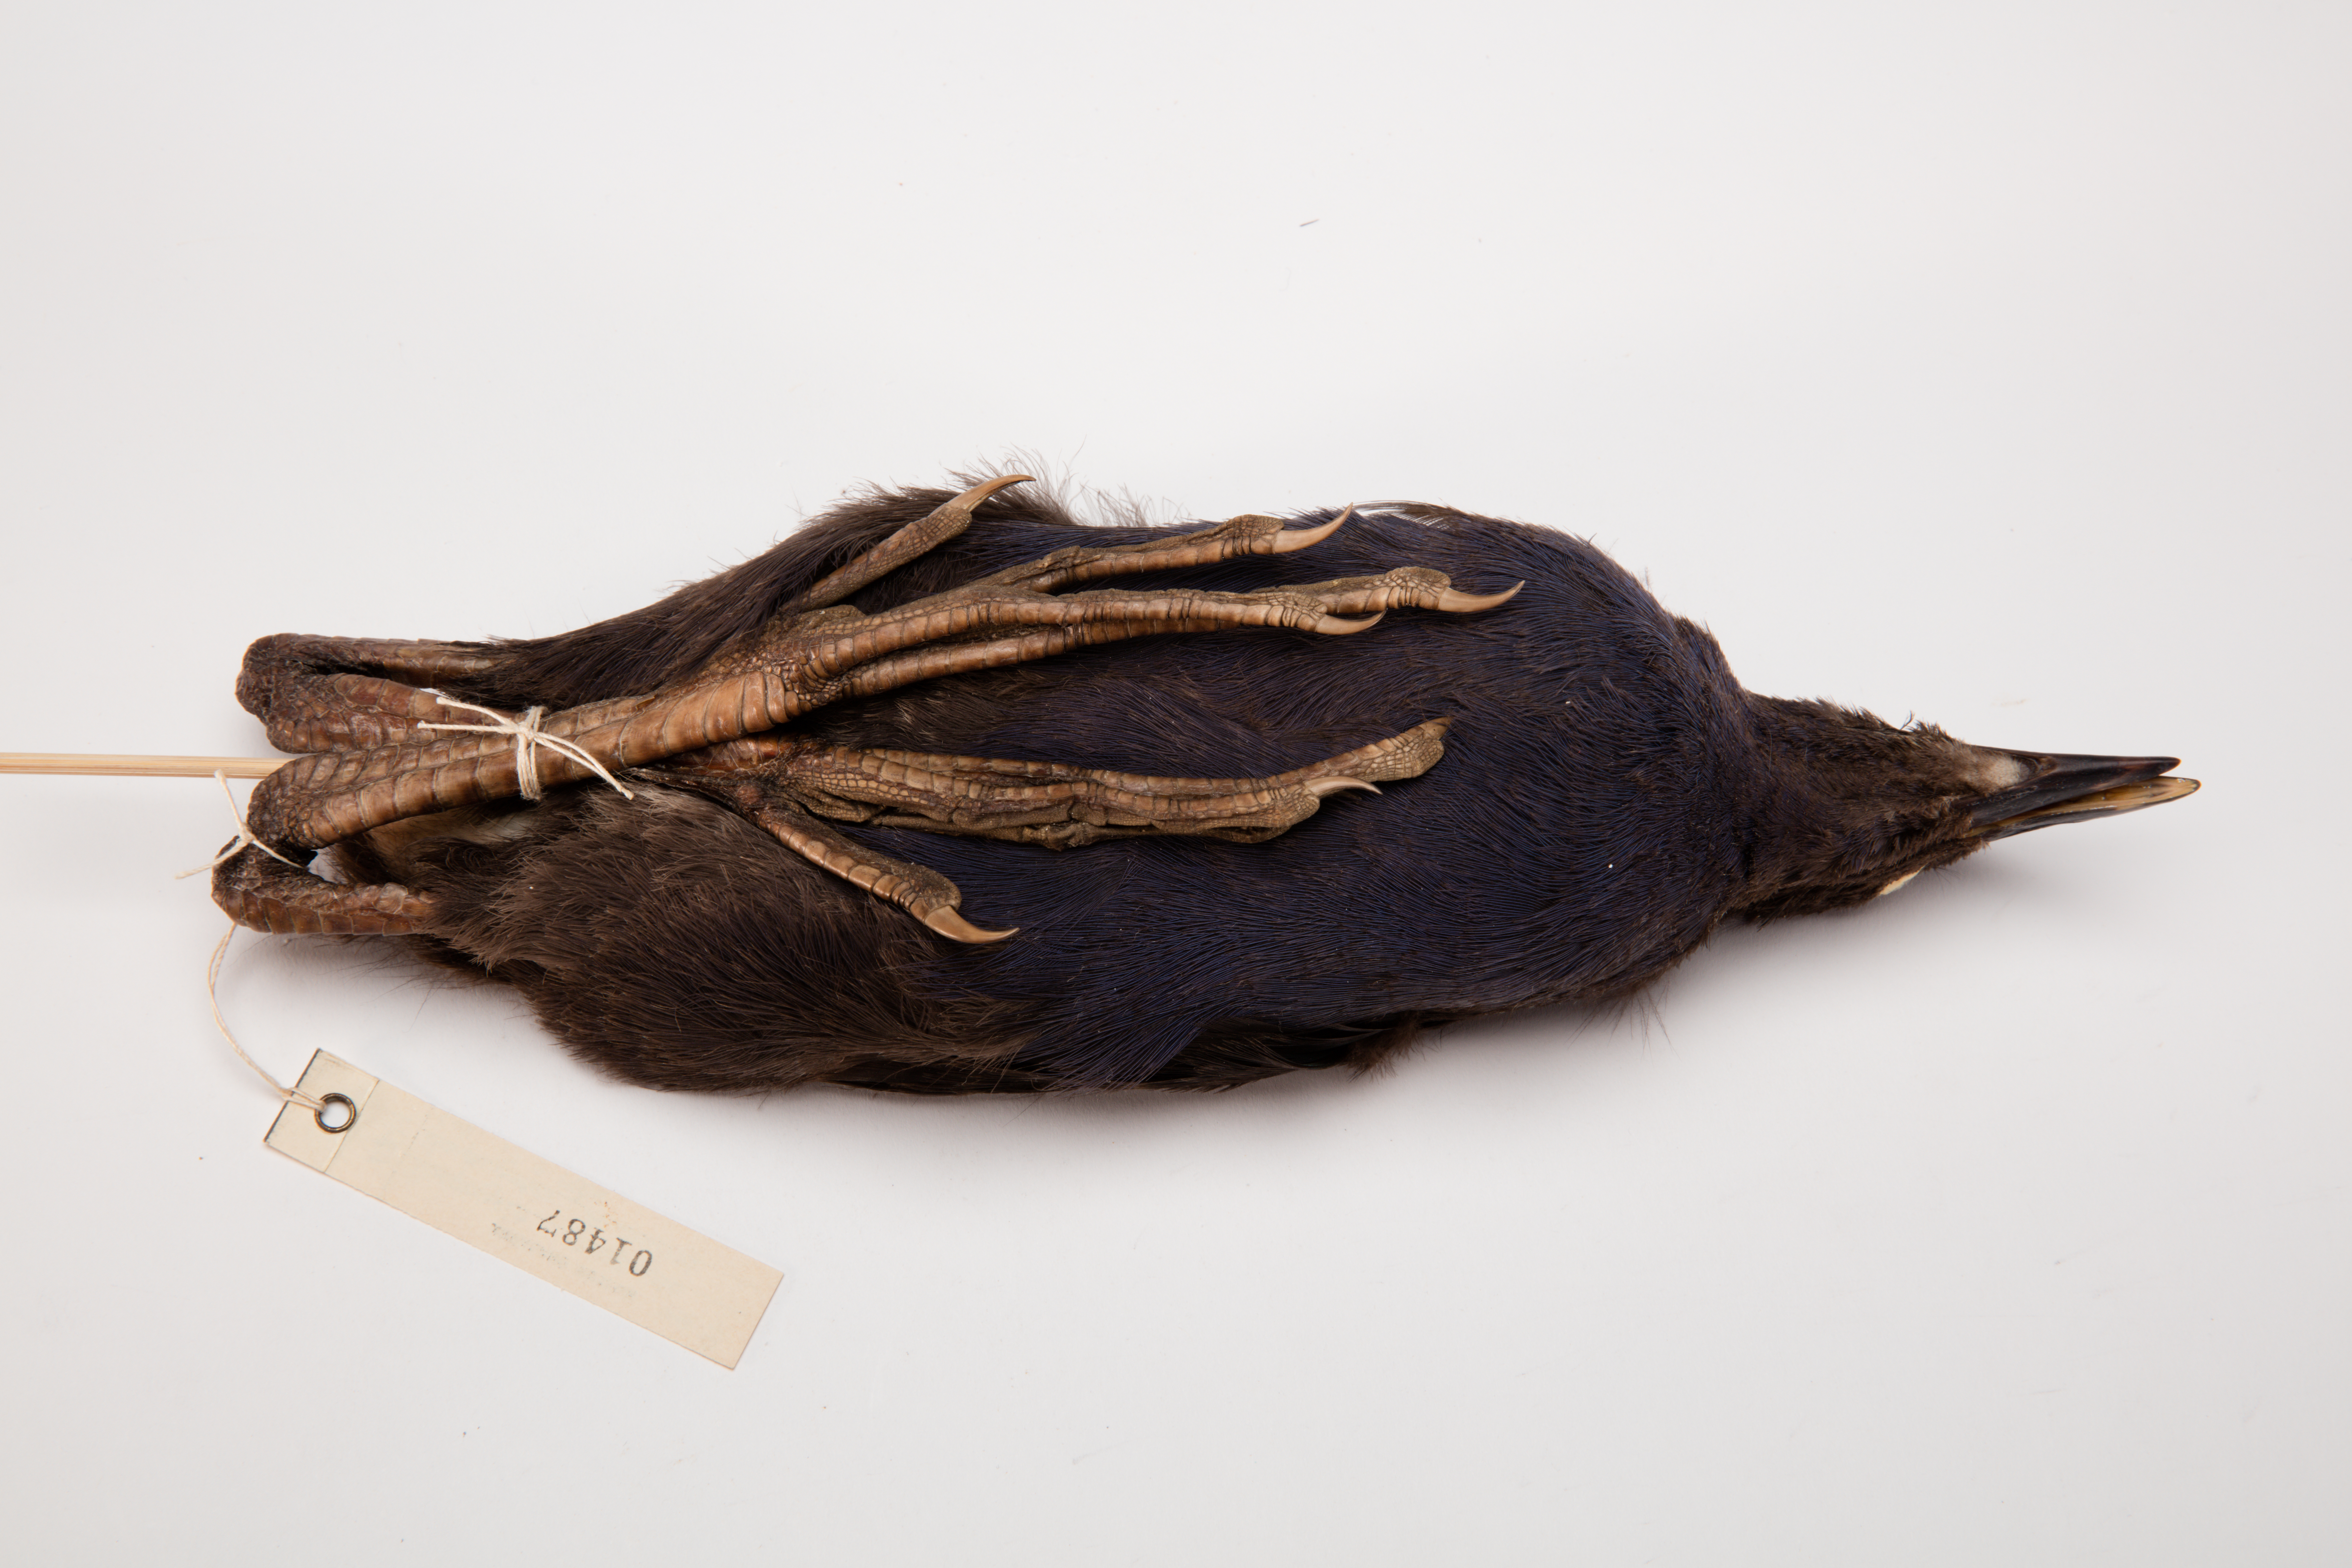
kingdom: Animalia
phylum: Chordata
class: Aves
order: Gruiformes
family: Rallidae
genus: Porphyrio
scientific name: Porphyrio melanotus
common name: Australasian swamphen
